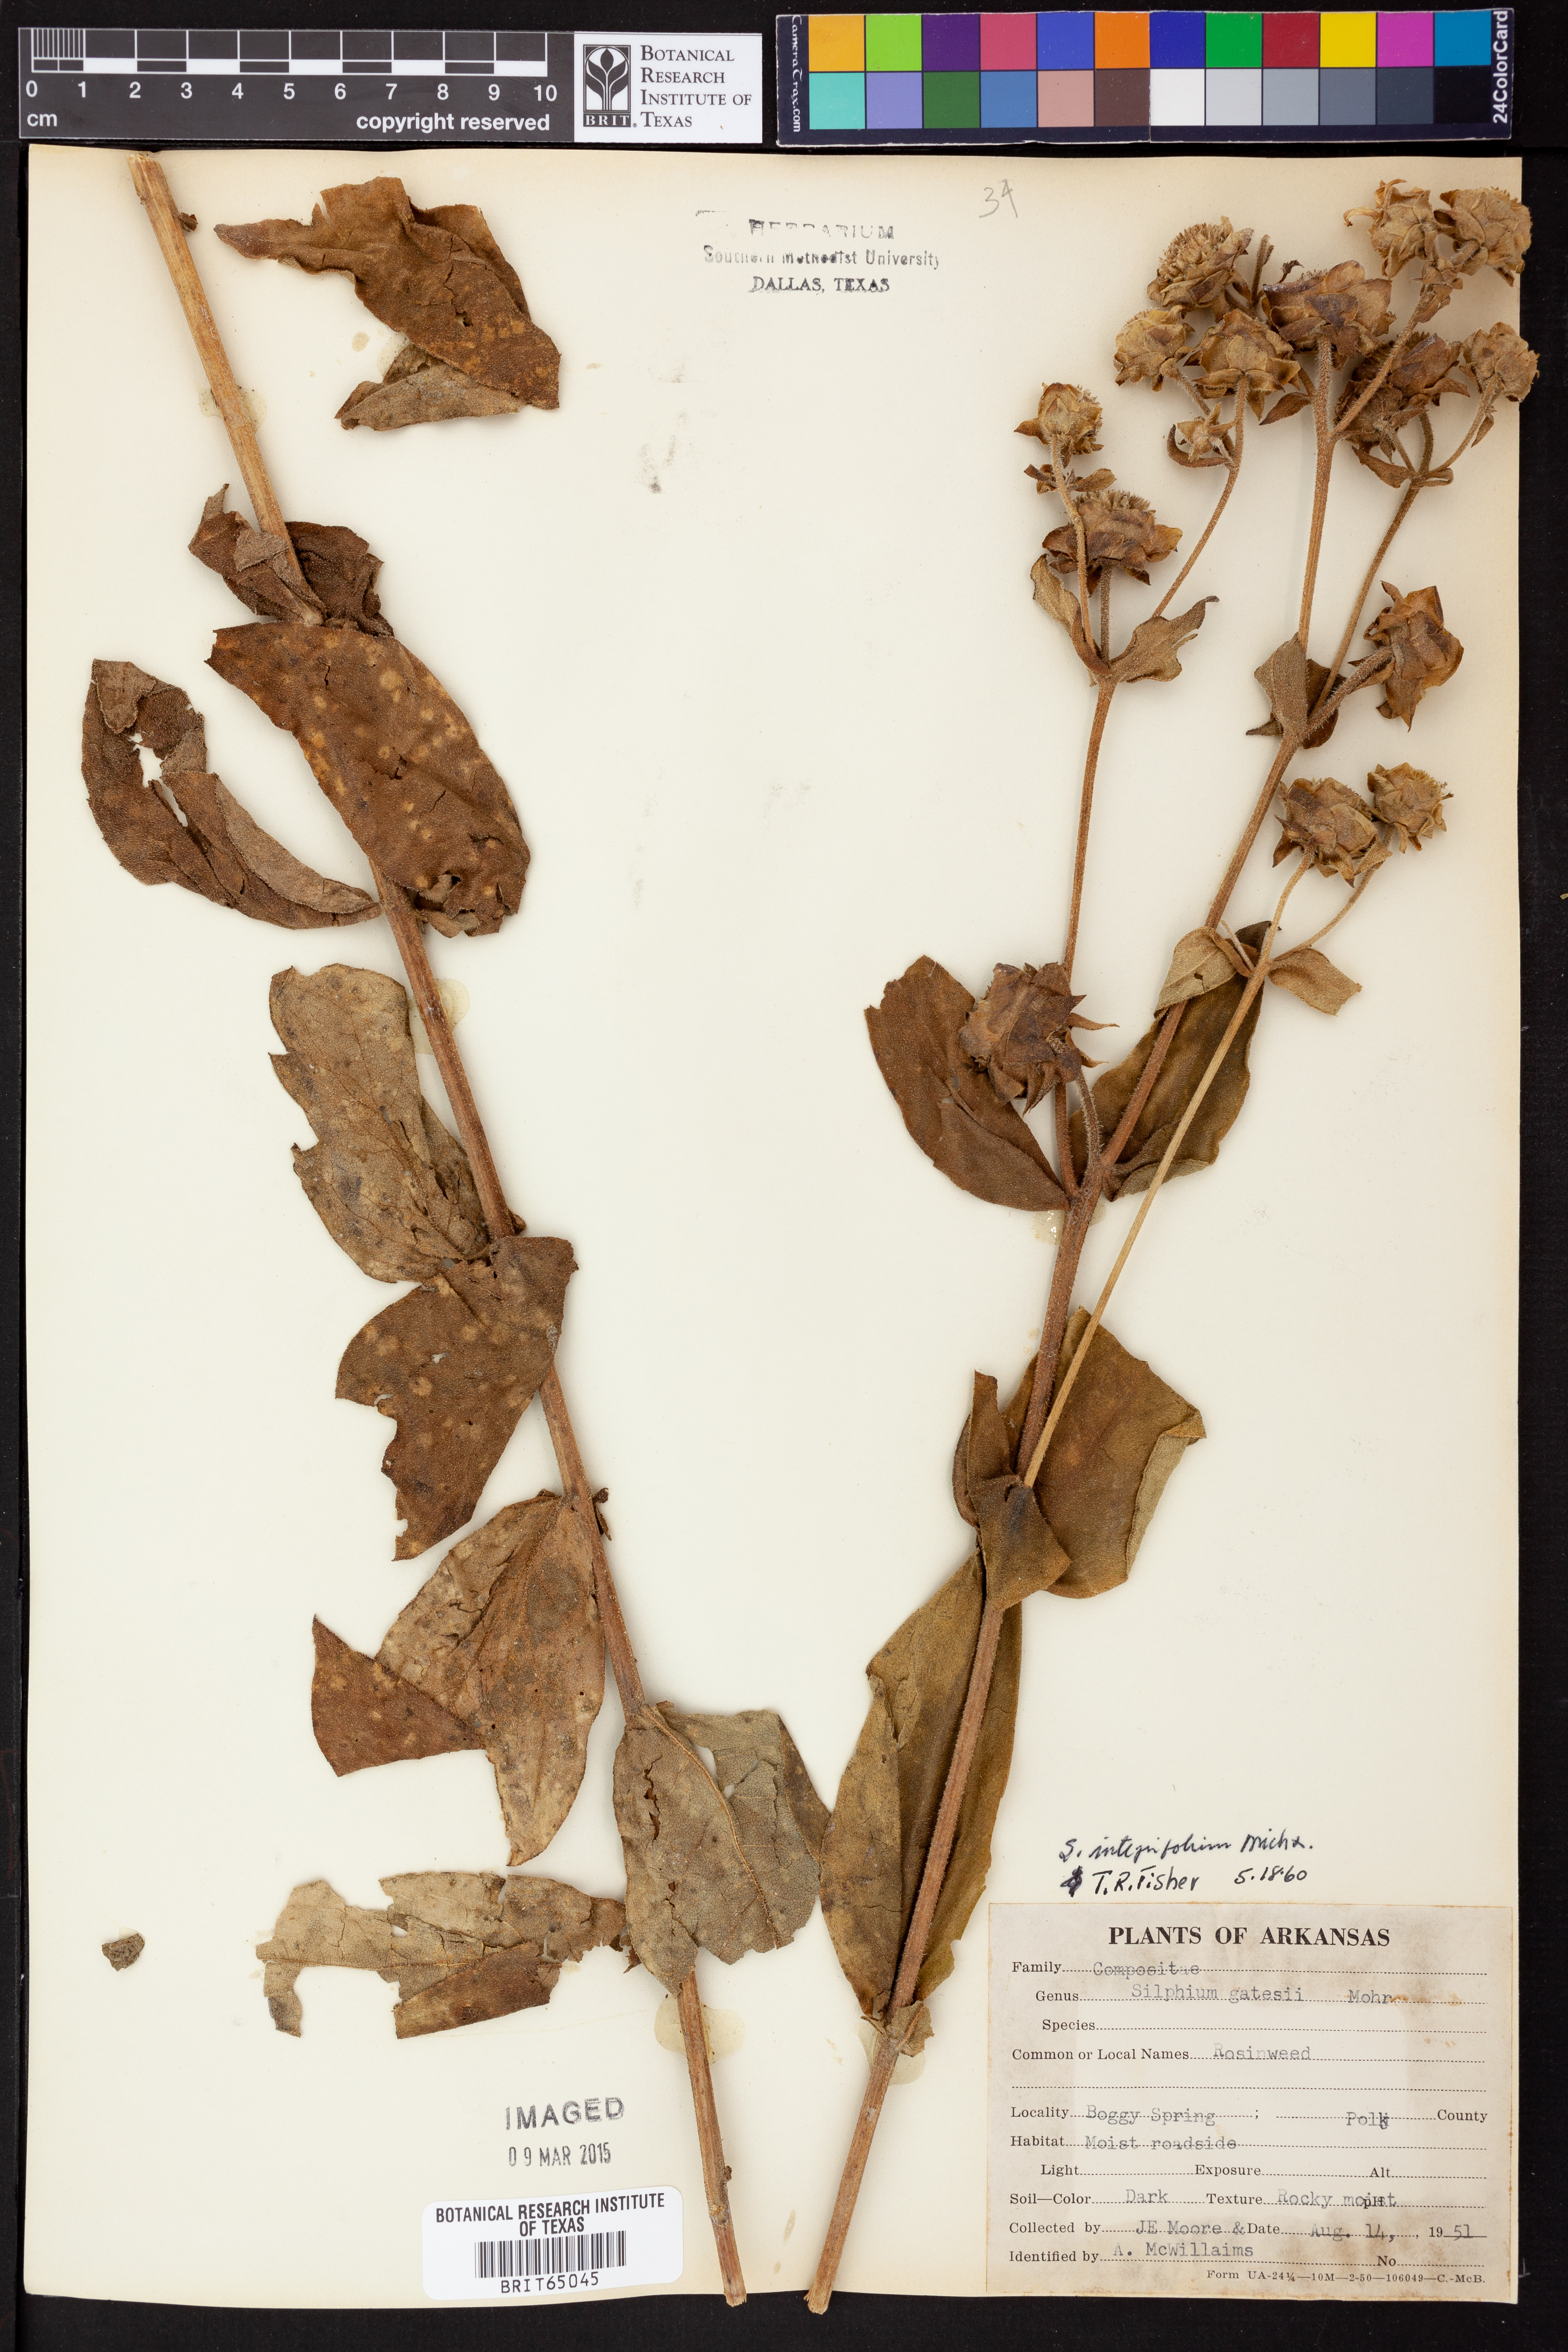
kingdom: Plantae
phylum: Tracheophyta
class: Magnoliopsida
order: Asterales
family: Asteraceae
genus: Silphium
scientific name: Silphium integrifolium
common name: Whole-leaf rosinweed
